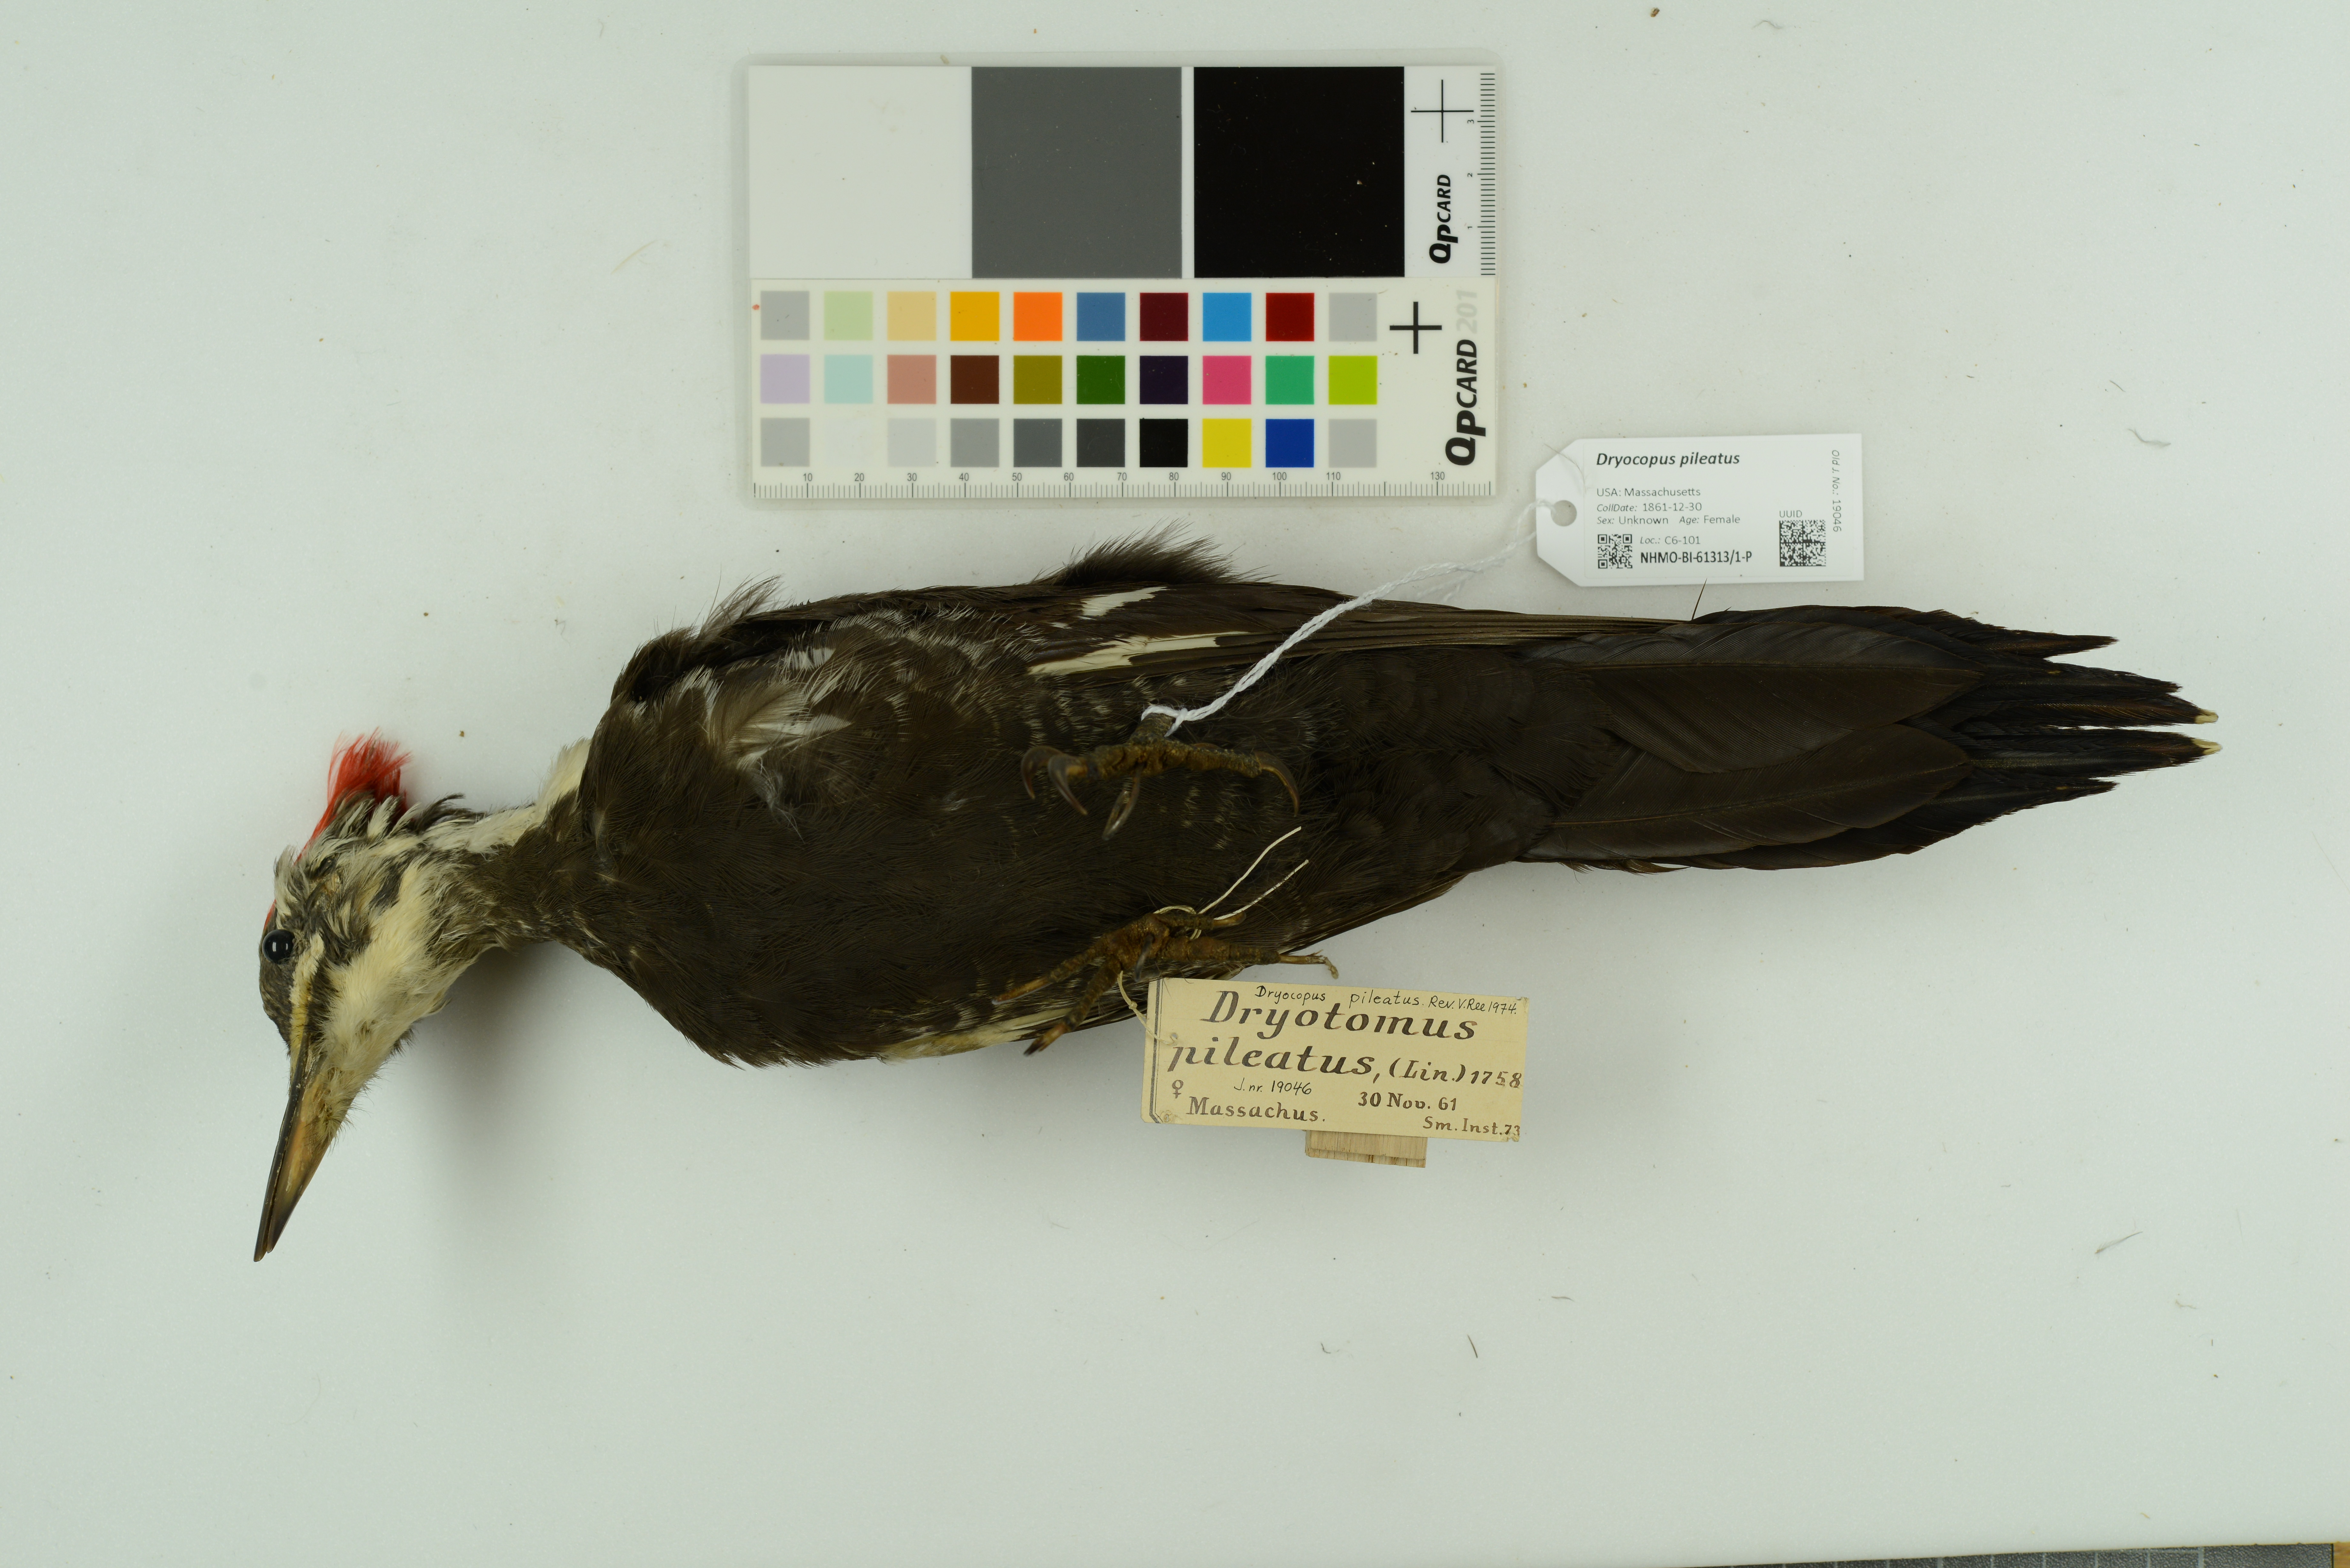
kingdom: Animalia
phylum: Chordata
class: Aves
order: Piciformes
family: Picidae
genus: Dryocopus
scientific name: Dryocopus pileatus
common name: Pileated woodpecker
